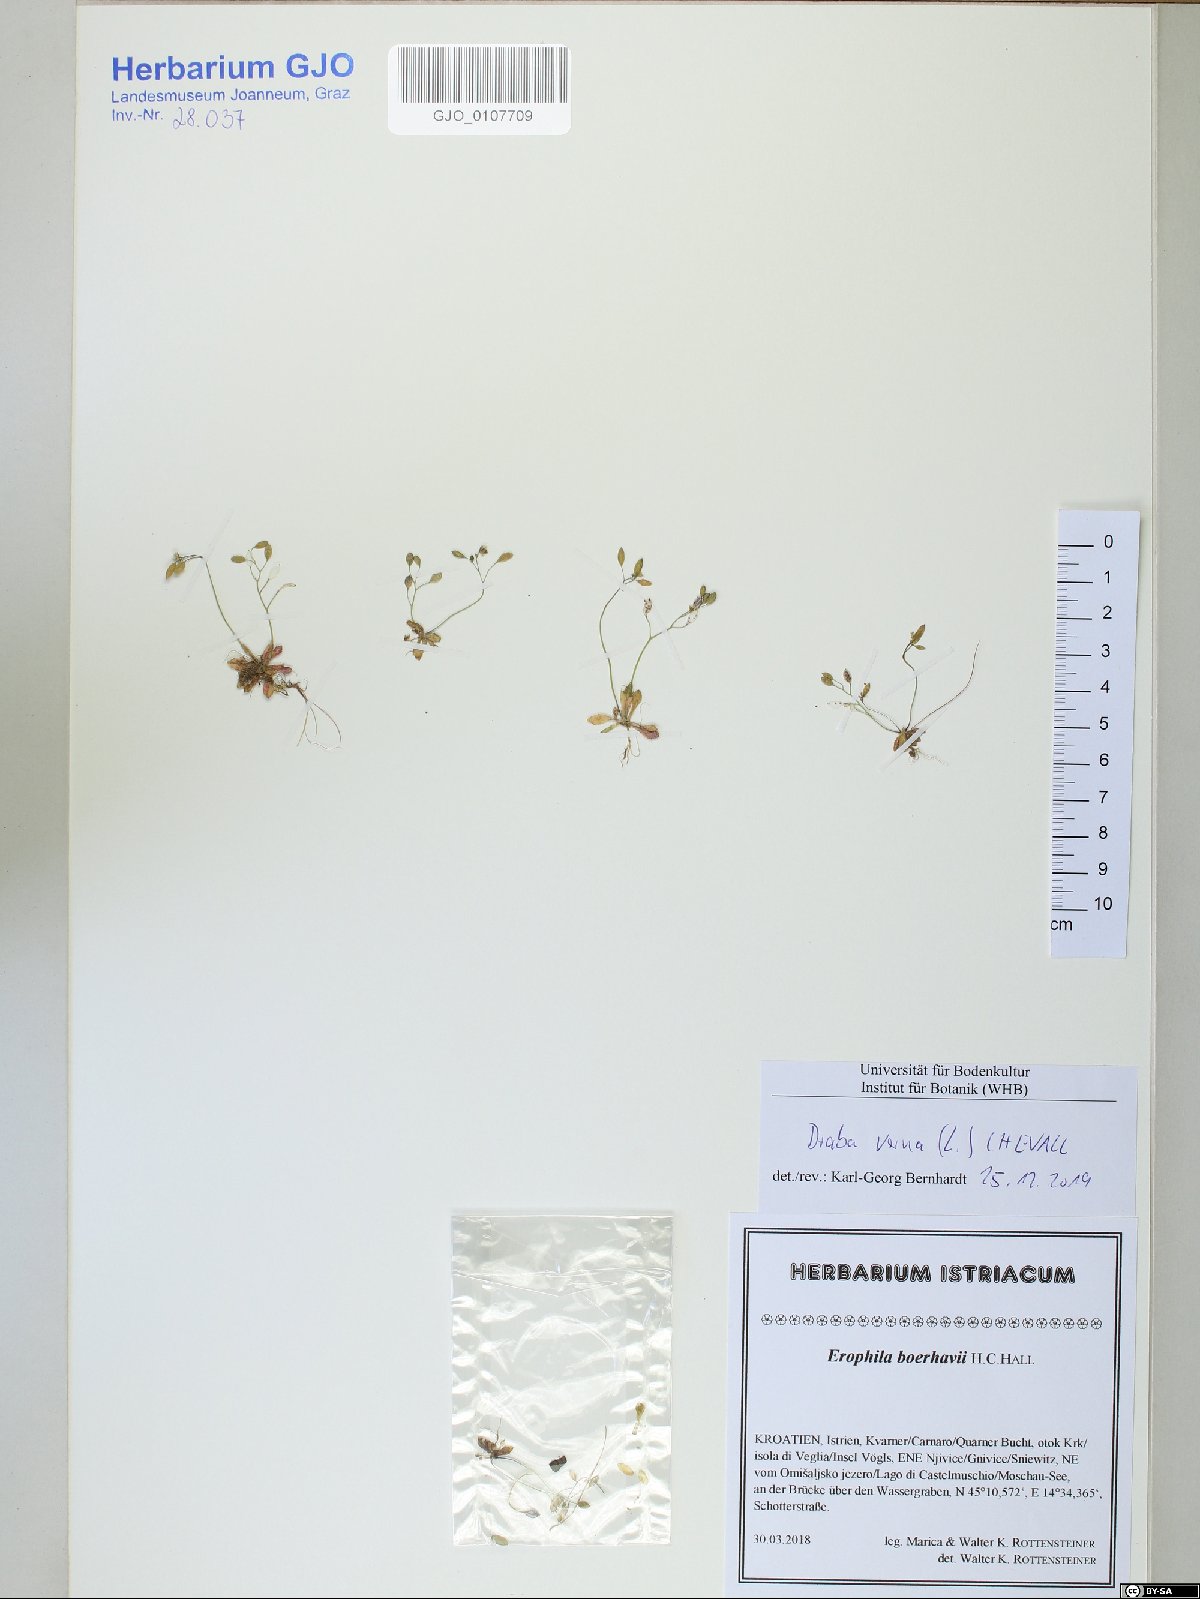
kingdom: Plantae
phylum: Tracheophyta
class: Magnoliopsida
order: Brassicales
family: Brassicaceae
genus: Draba
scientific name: Draba verna
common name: Spring draba
